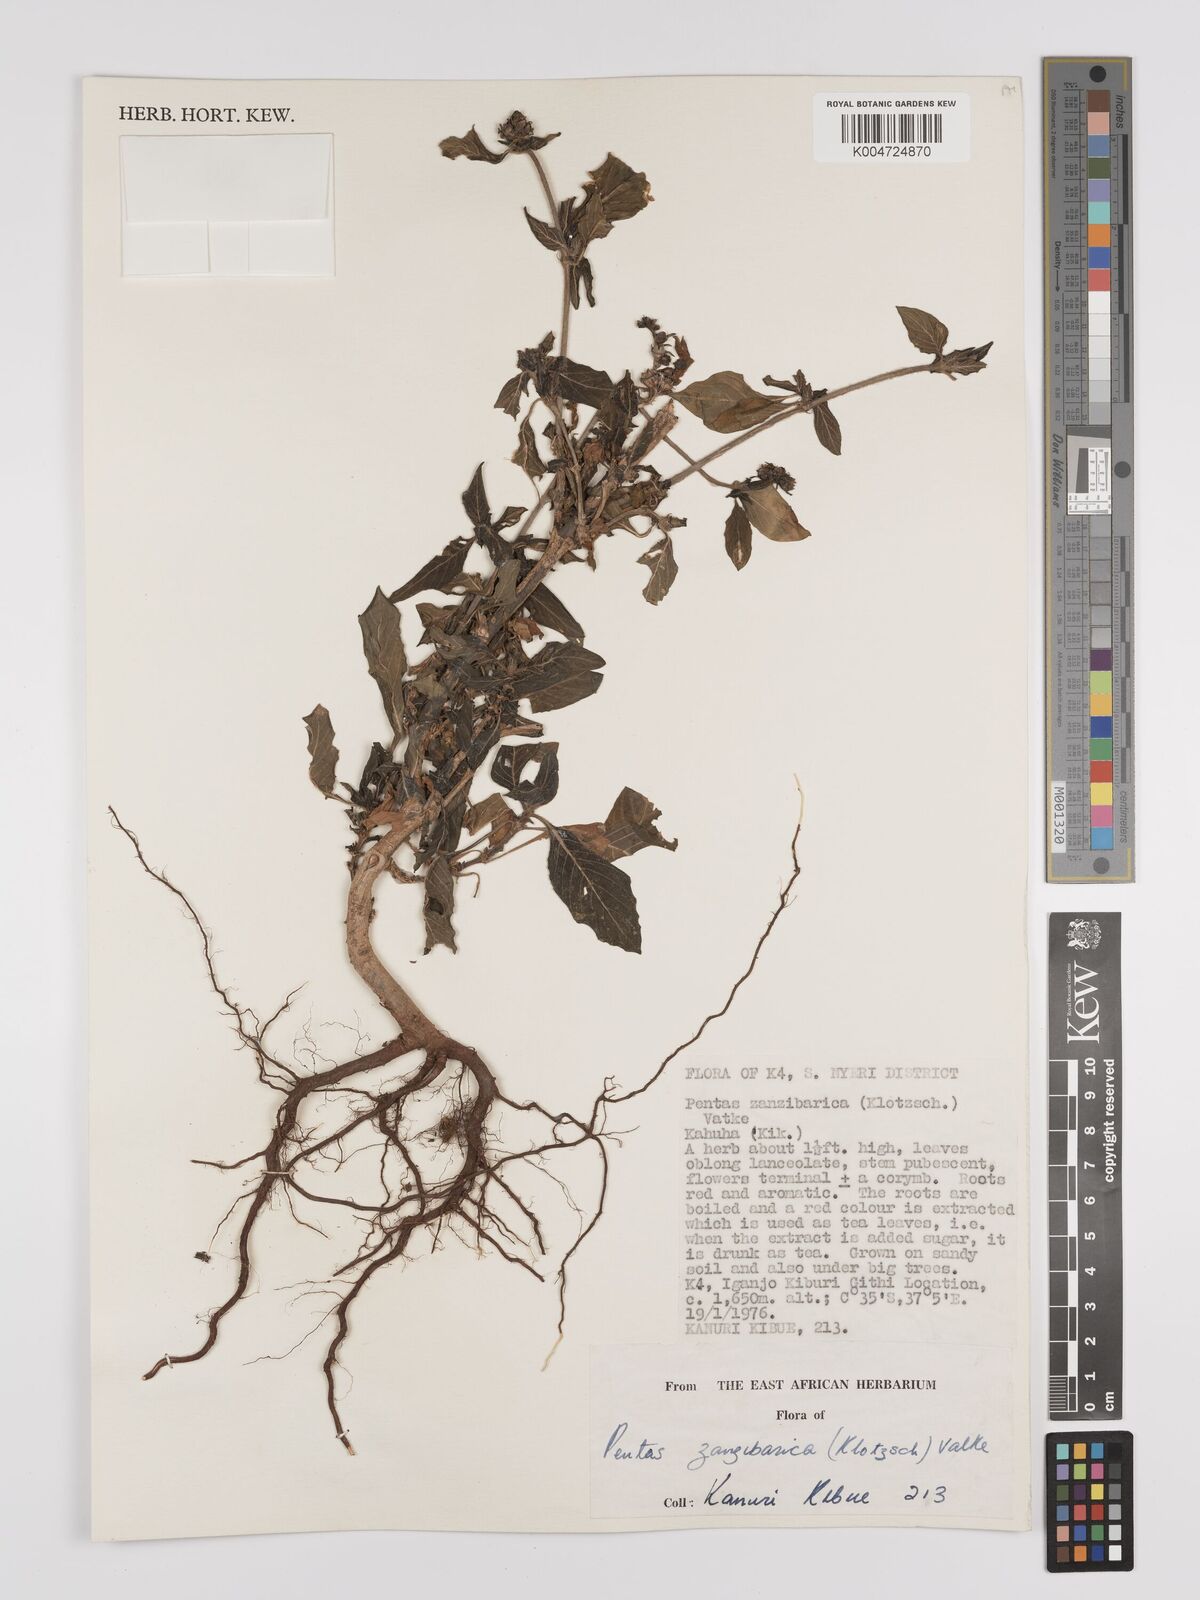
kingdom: Plantae
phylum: Tracheophyta
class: Magnoliopsida
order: Gentianales
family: Rubiaceae
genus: Pentas
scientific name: Pentas zanzibarica
